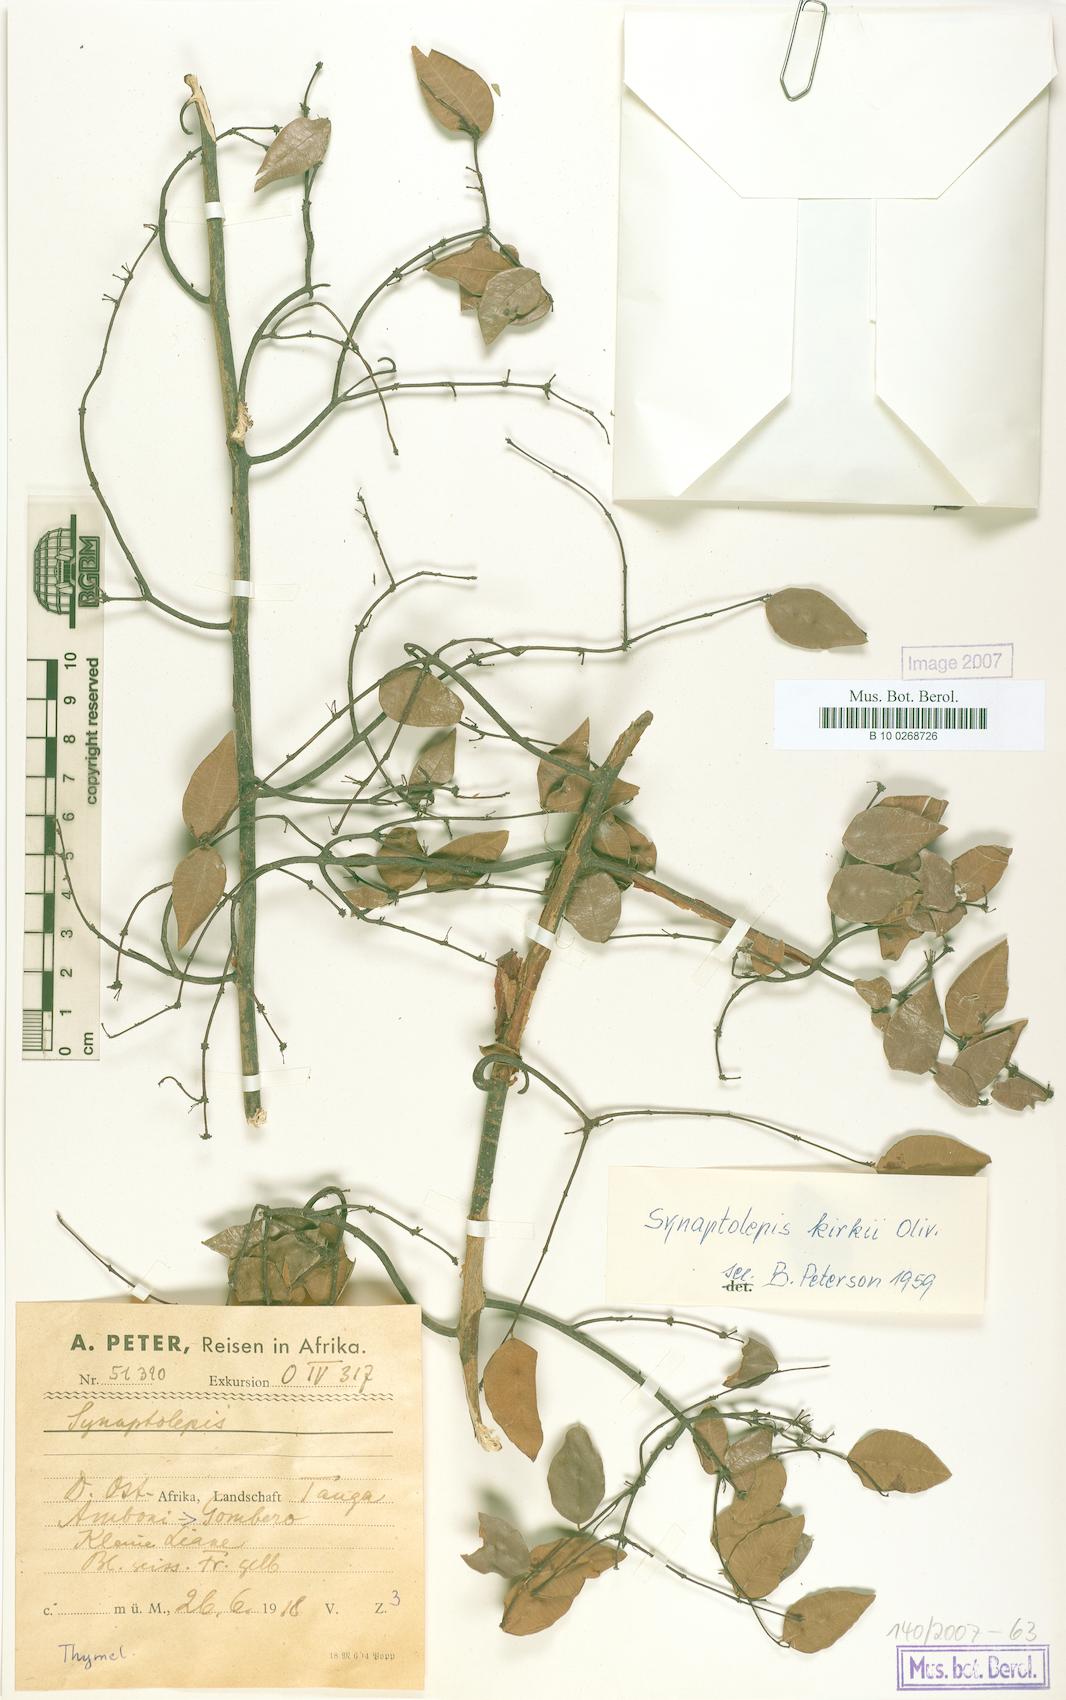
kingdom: Plantae
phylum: Tracheophyta
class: Magnoliopsida
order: Malvales
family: Thymelaeaceae
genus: Synaptolepis
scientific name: Synaptolepis kirkii
